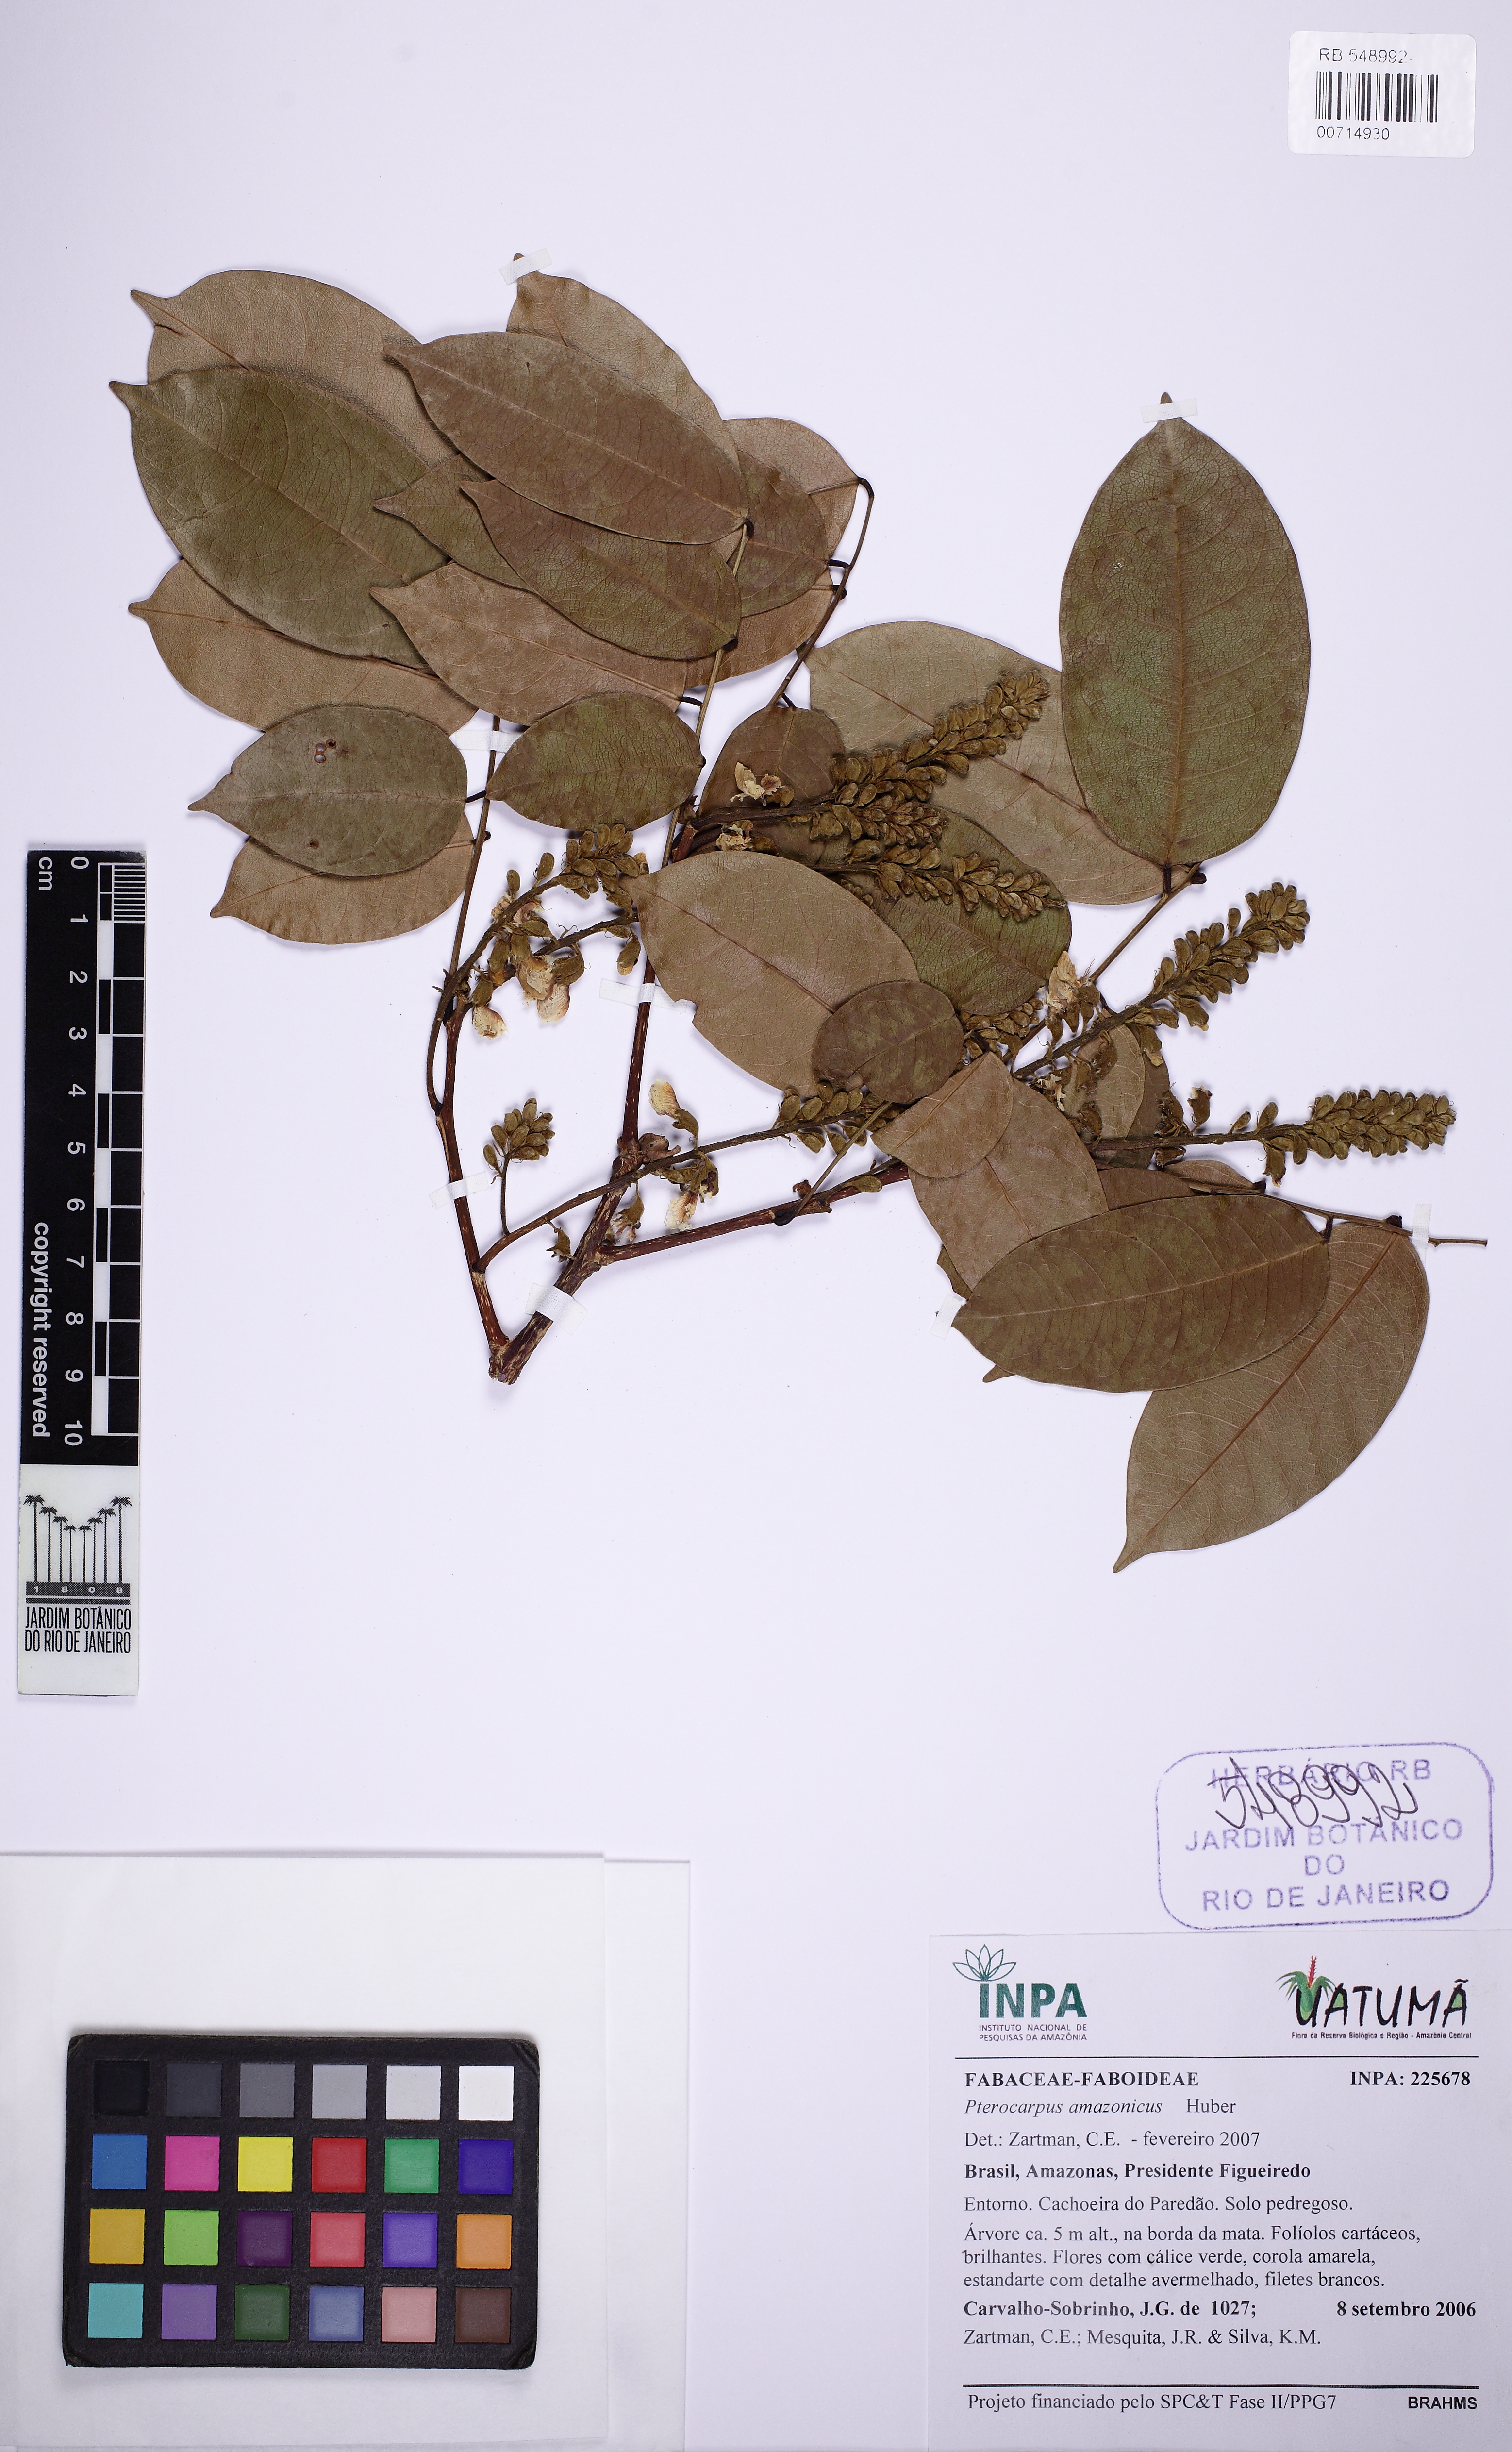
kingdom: Plantae
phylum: Tracheophyta
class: Magnoliopsida
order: Fabales
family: Fabaceae
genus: Pterocarpus
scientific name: Pterocarpus santalinoides
